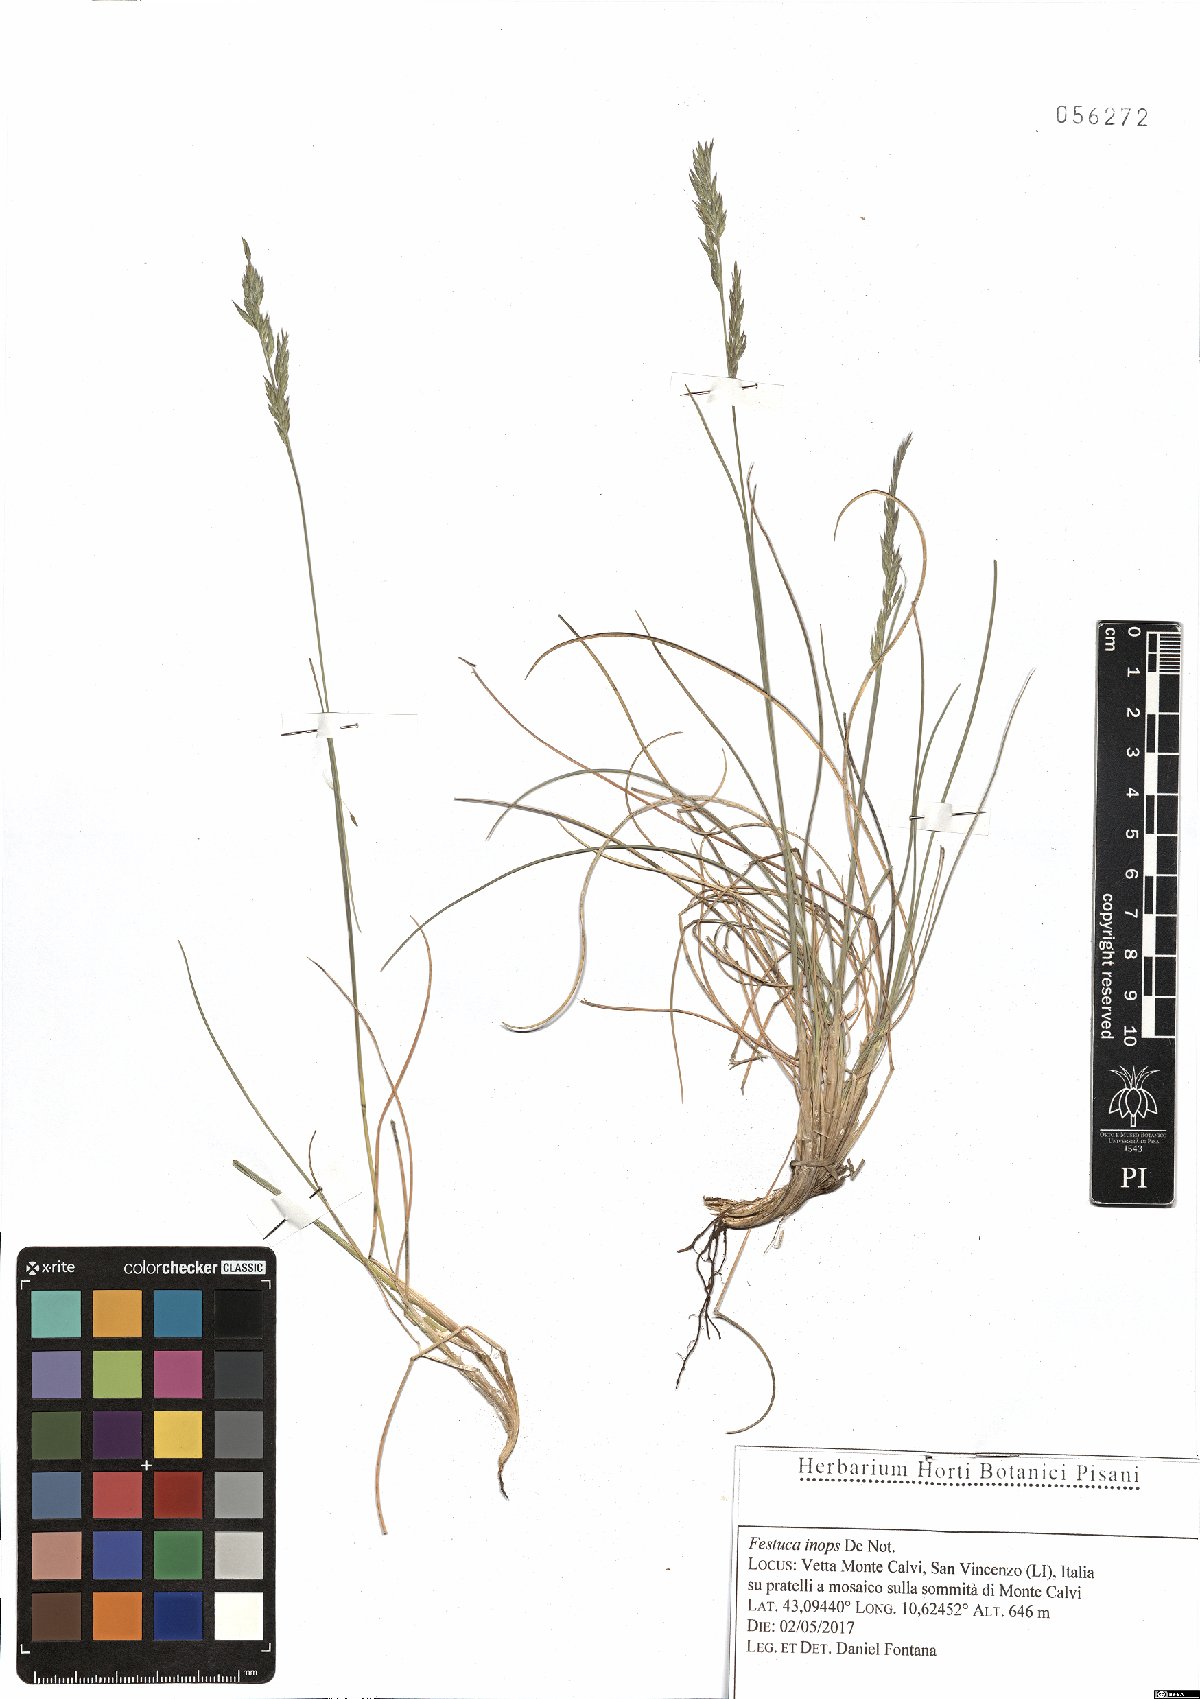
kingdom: Plantae
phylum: Tracheophyta
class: Liliopsida
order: Poales
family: Poaceae
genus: Festuca
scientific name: Festuca inops
